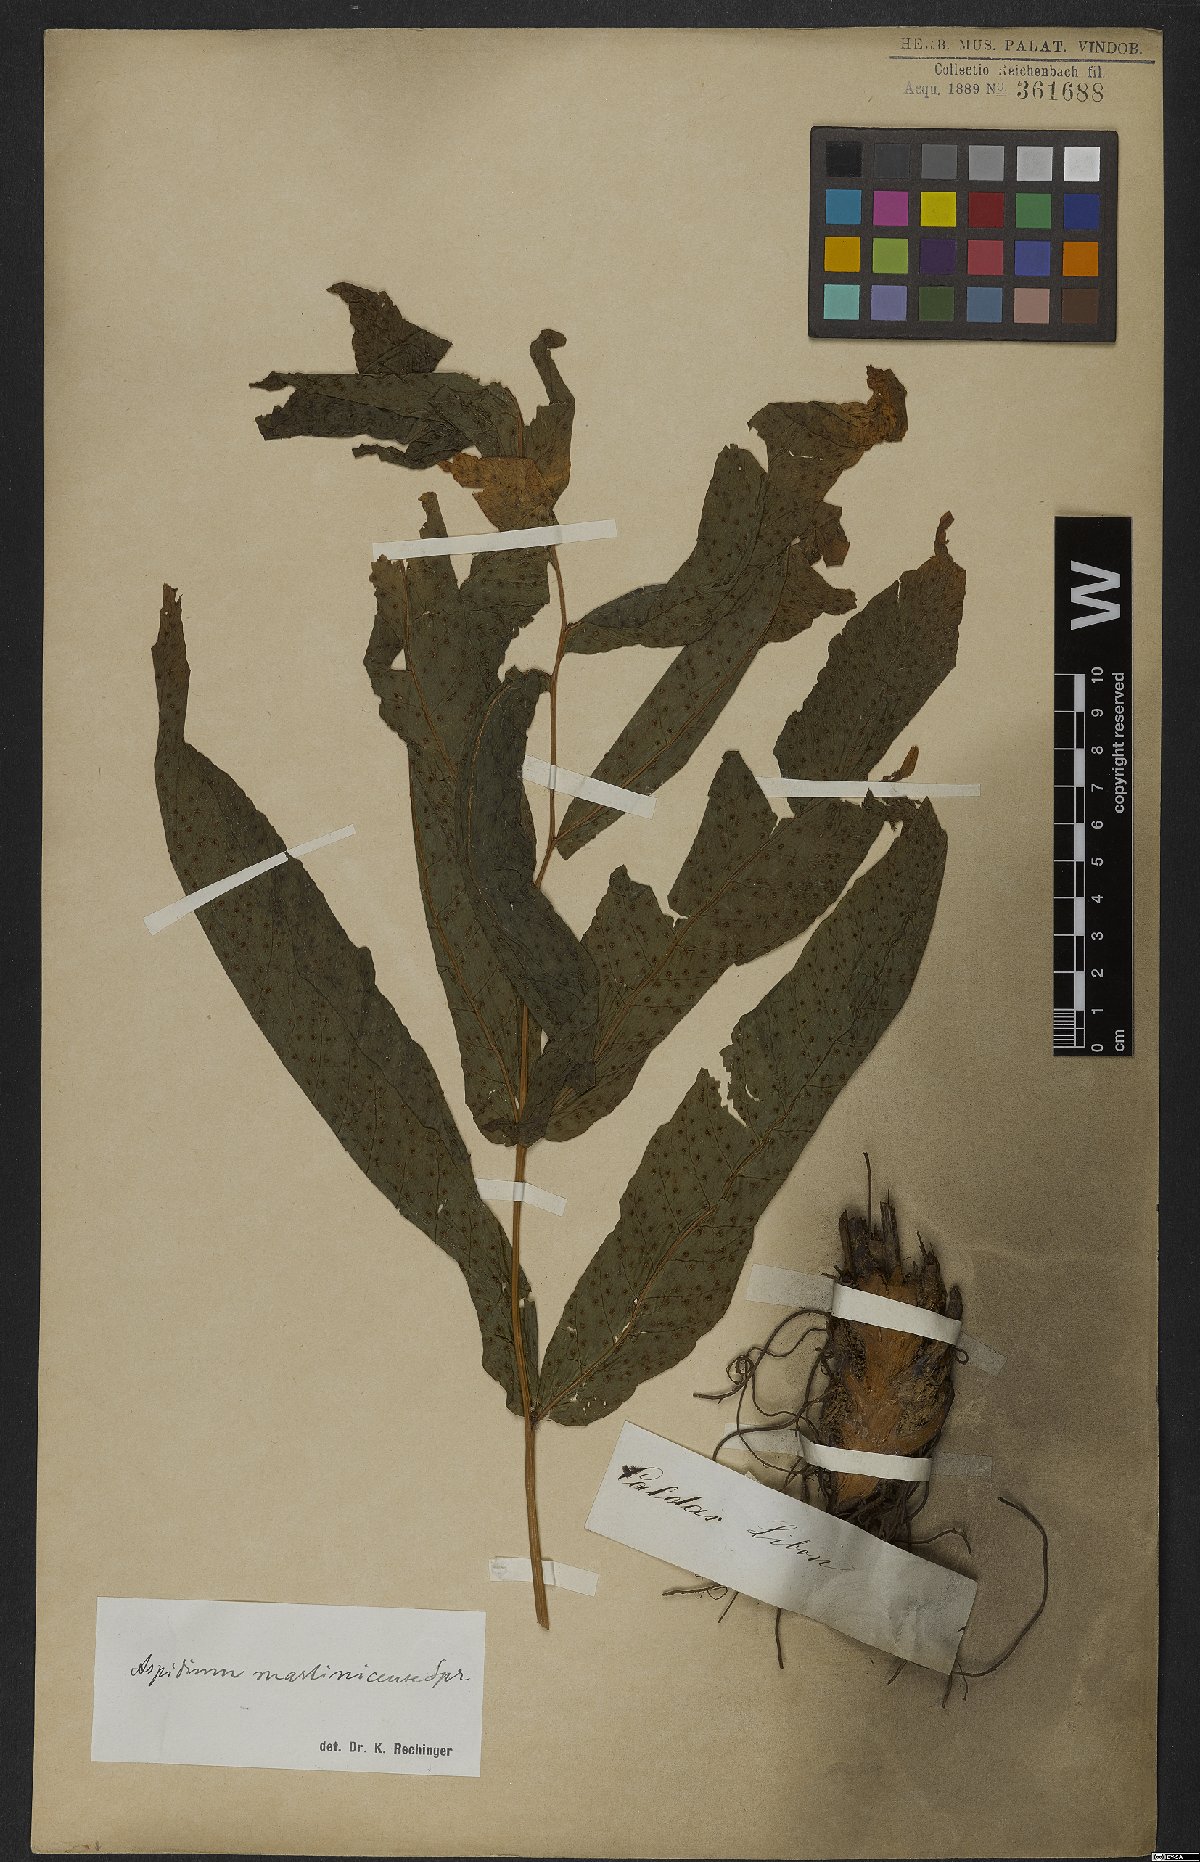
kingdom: Plantae
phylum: Tracheophyta
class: Polypodiopsida
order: Polypodiales
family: Tectariaceae
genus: Tectaria
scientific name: Tectaria incisa
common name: Incised halberd fern
